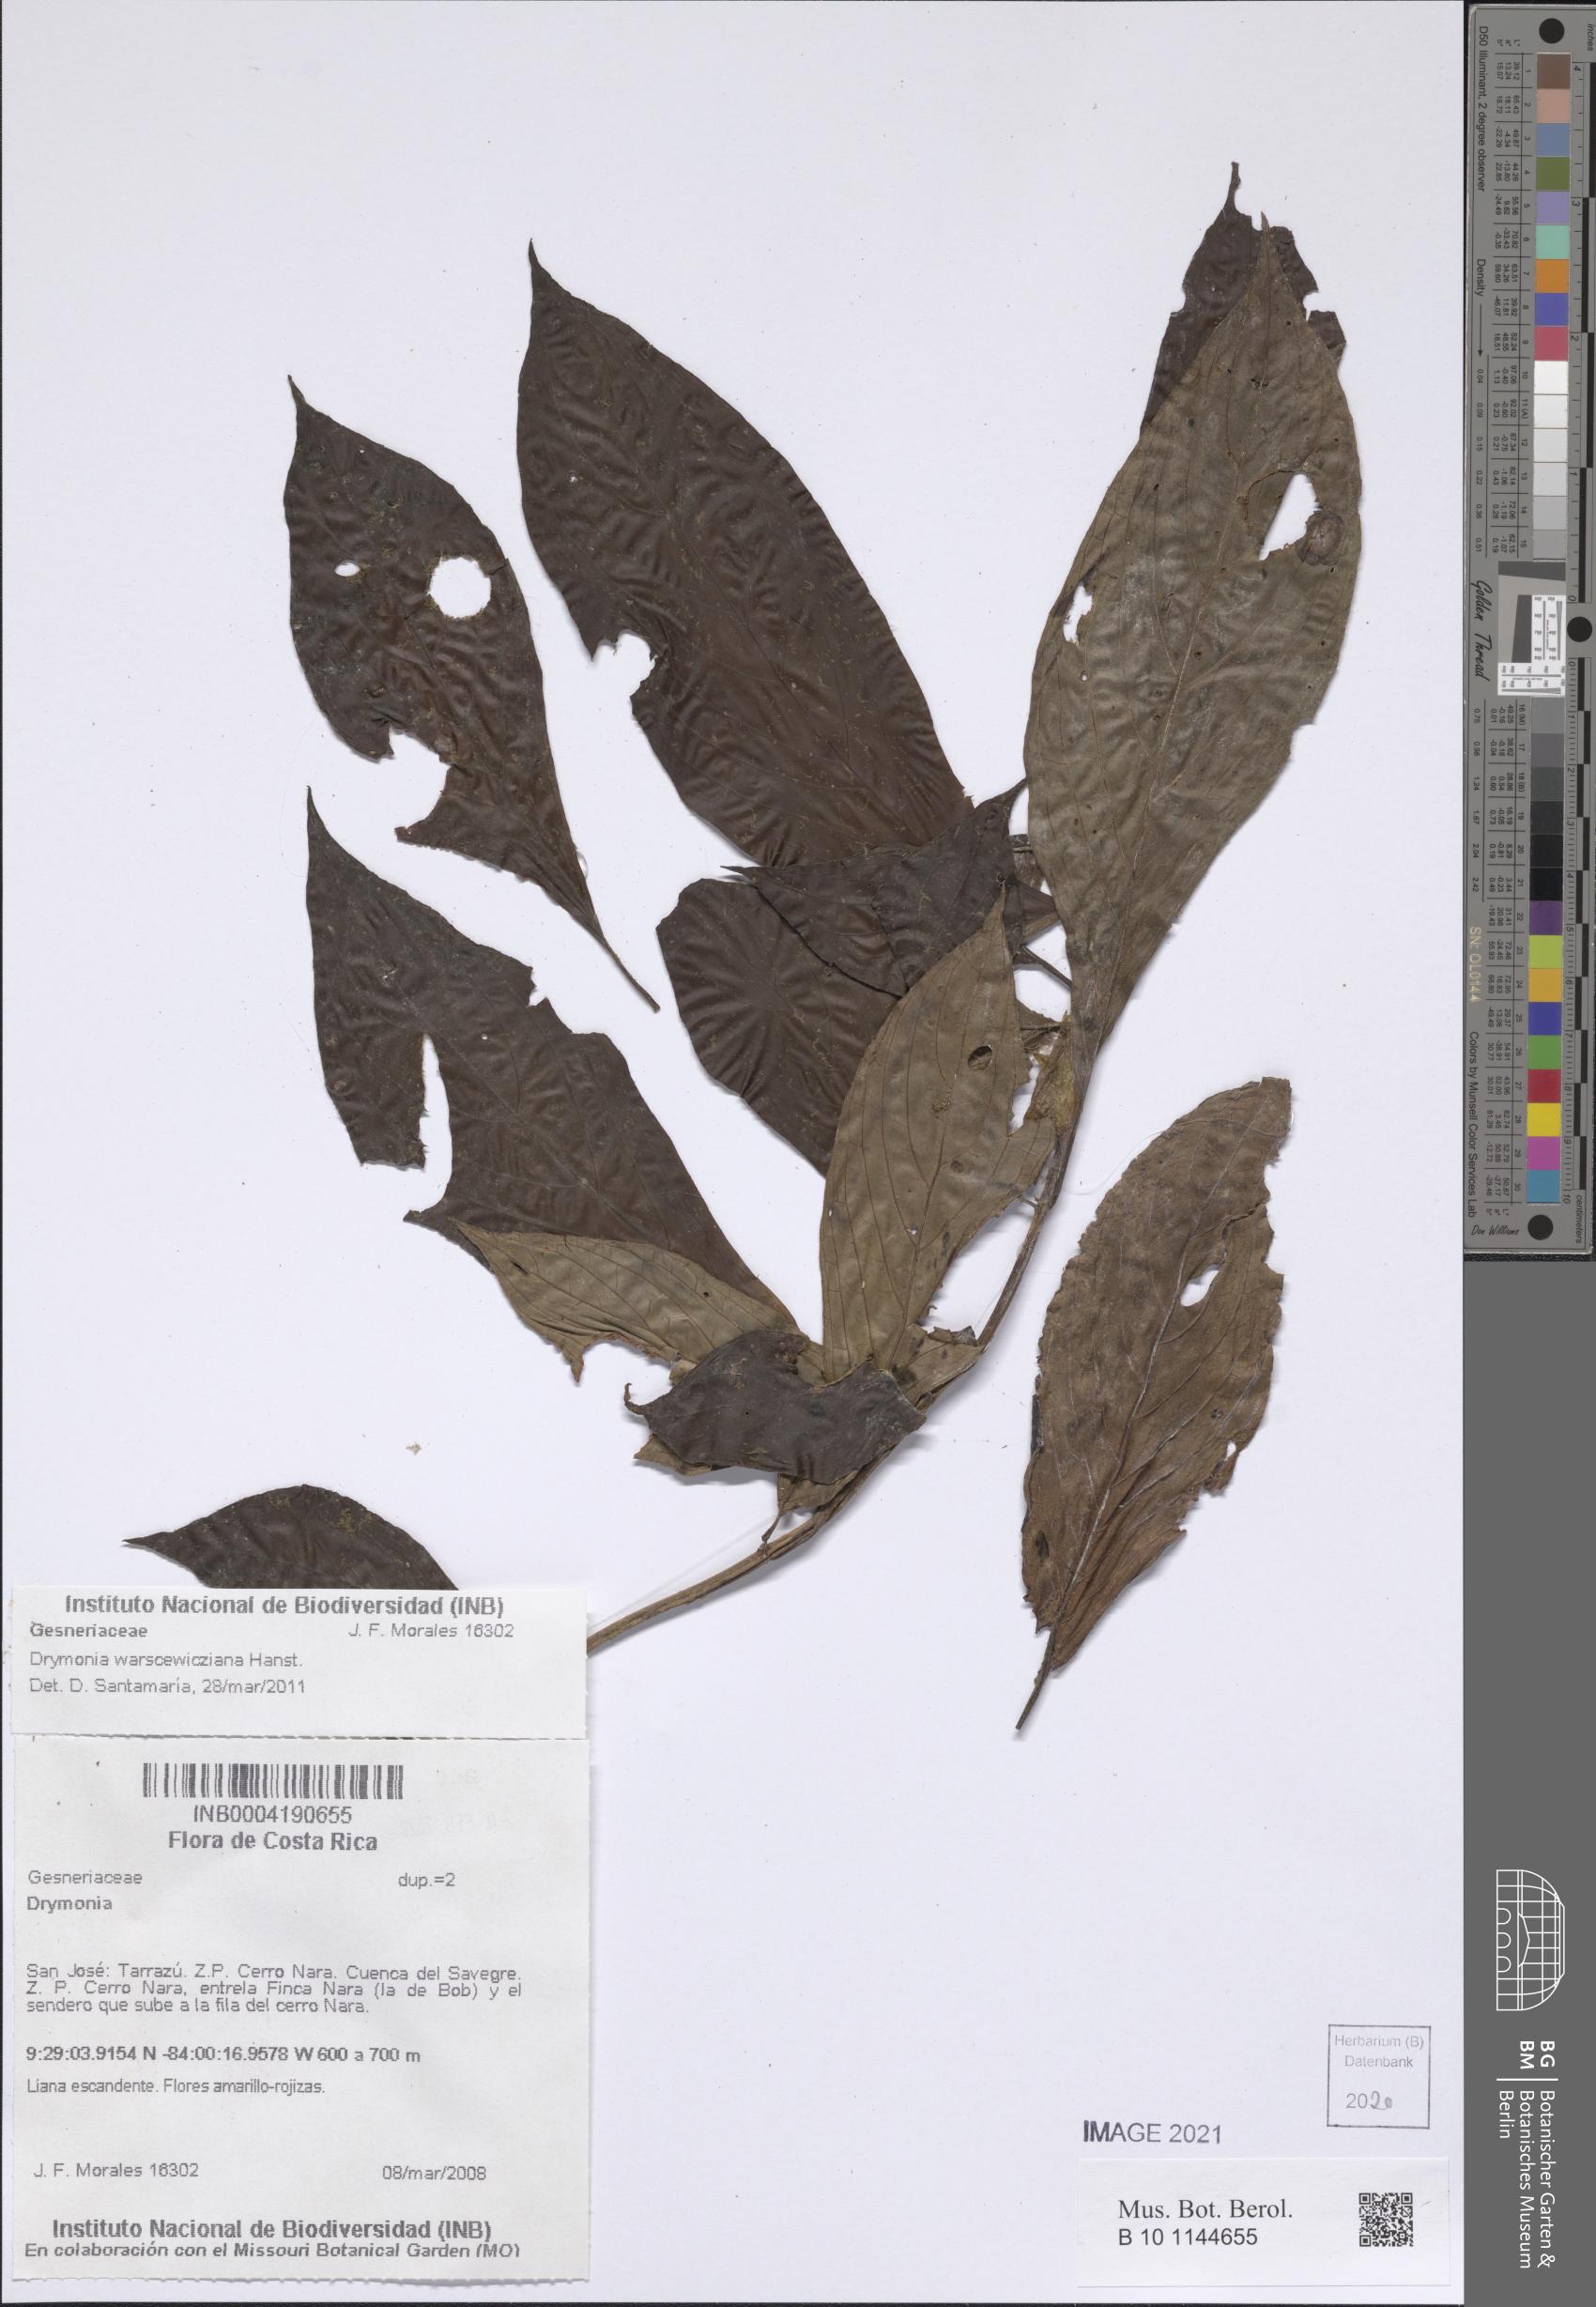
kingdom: Plantae
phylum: Tracheophyta
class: Magnoliopsida
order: Lamiales
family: Gesneriaceae
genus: Drymonia
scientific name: Drymonia
